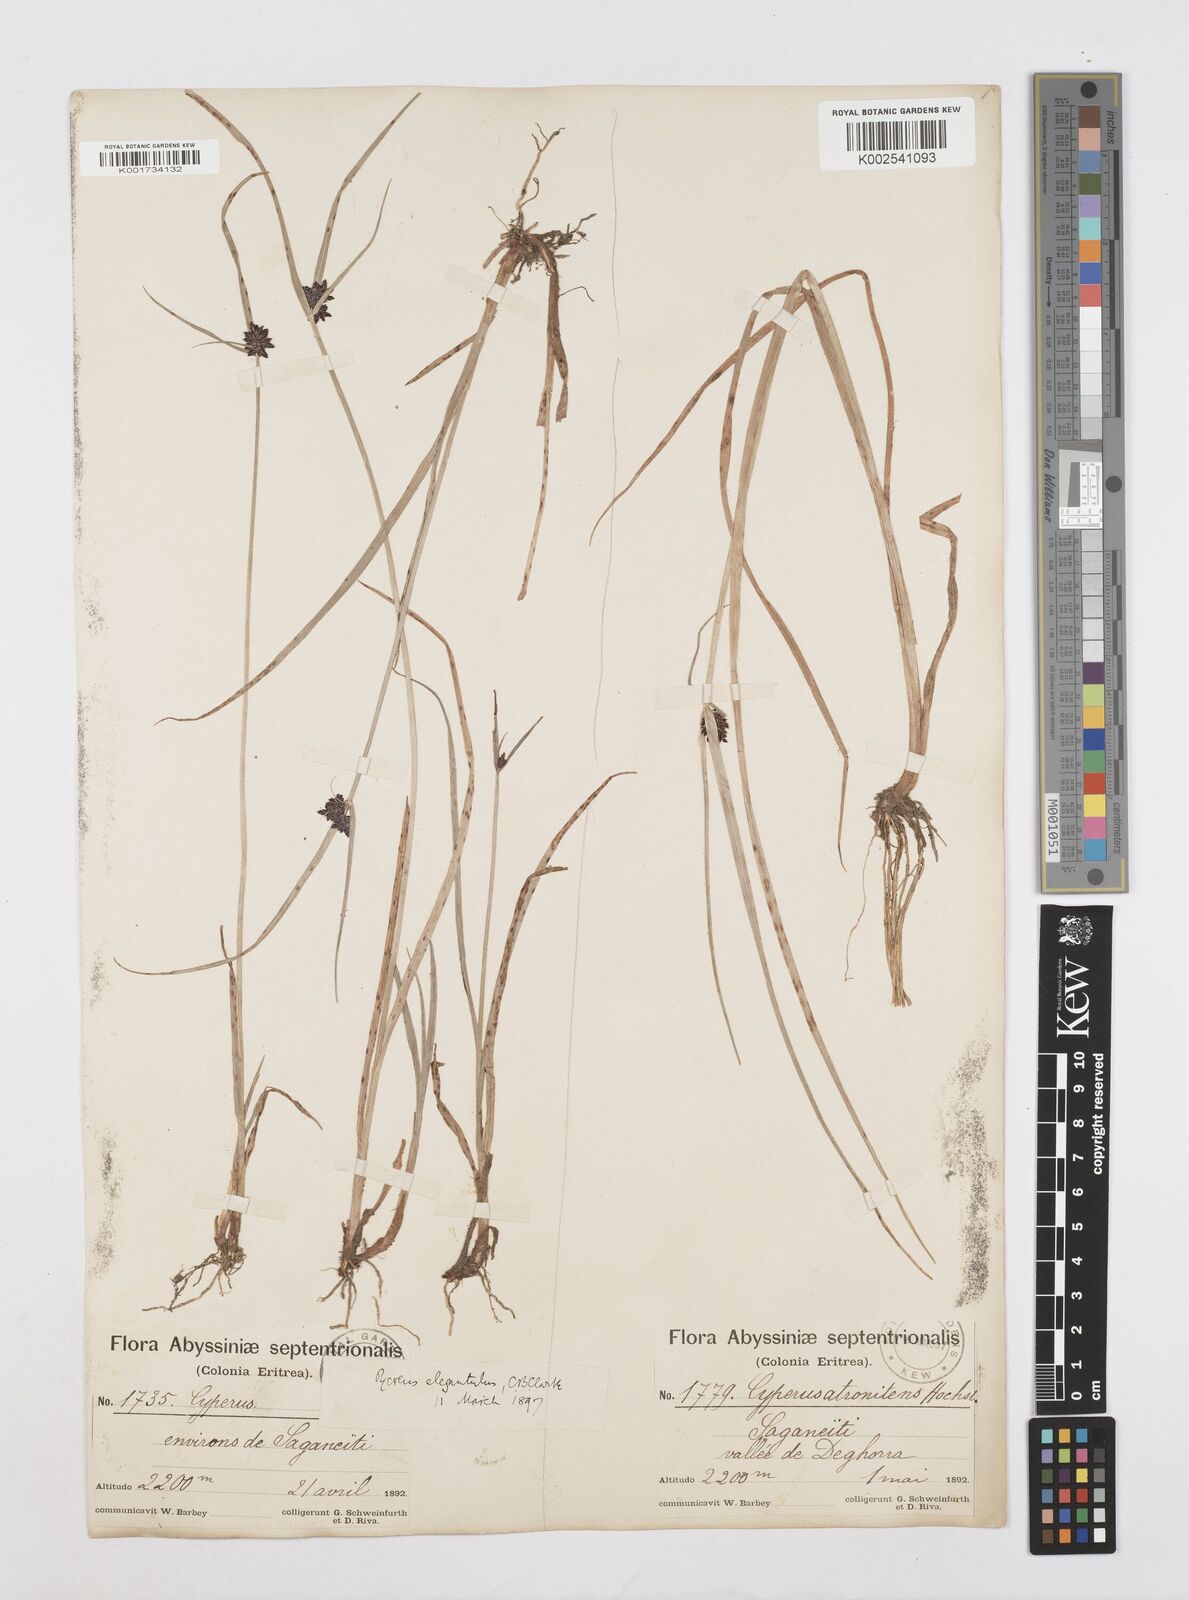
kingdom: Plantae
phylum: Tracheophyta
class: Liliopsida
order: Poales
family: Cyperaceae
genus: Cyperus
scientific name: Cyperus elegantulus
